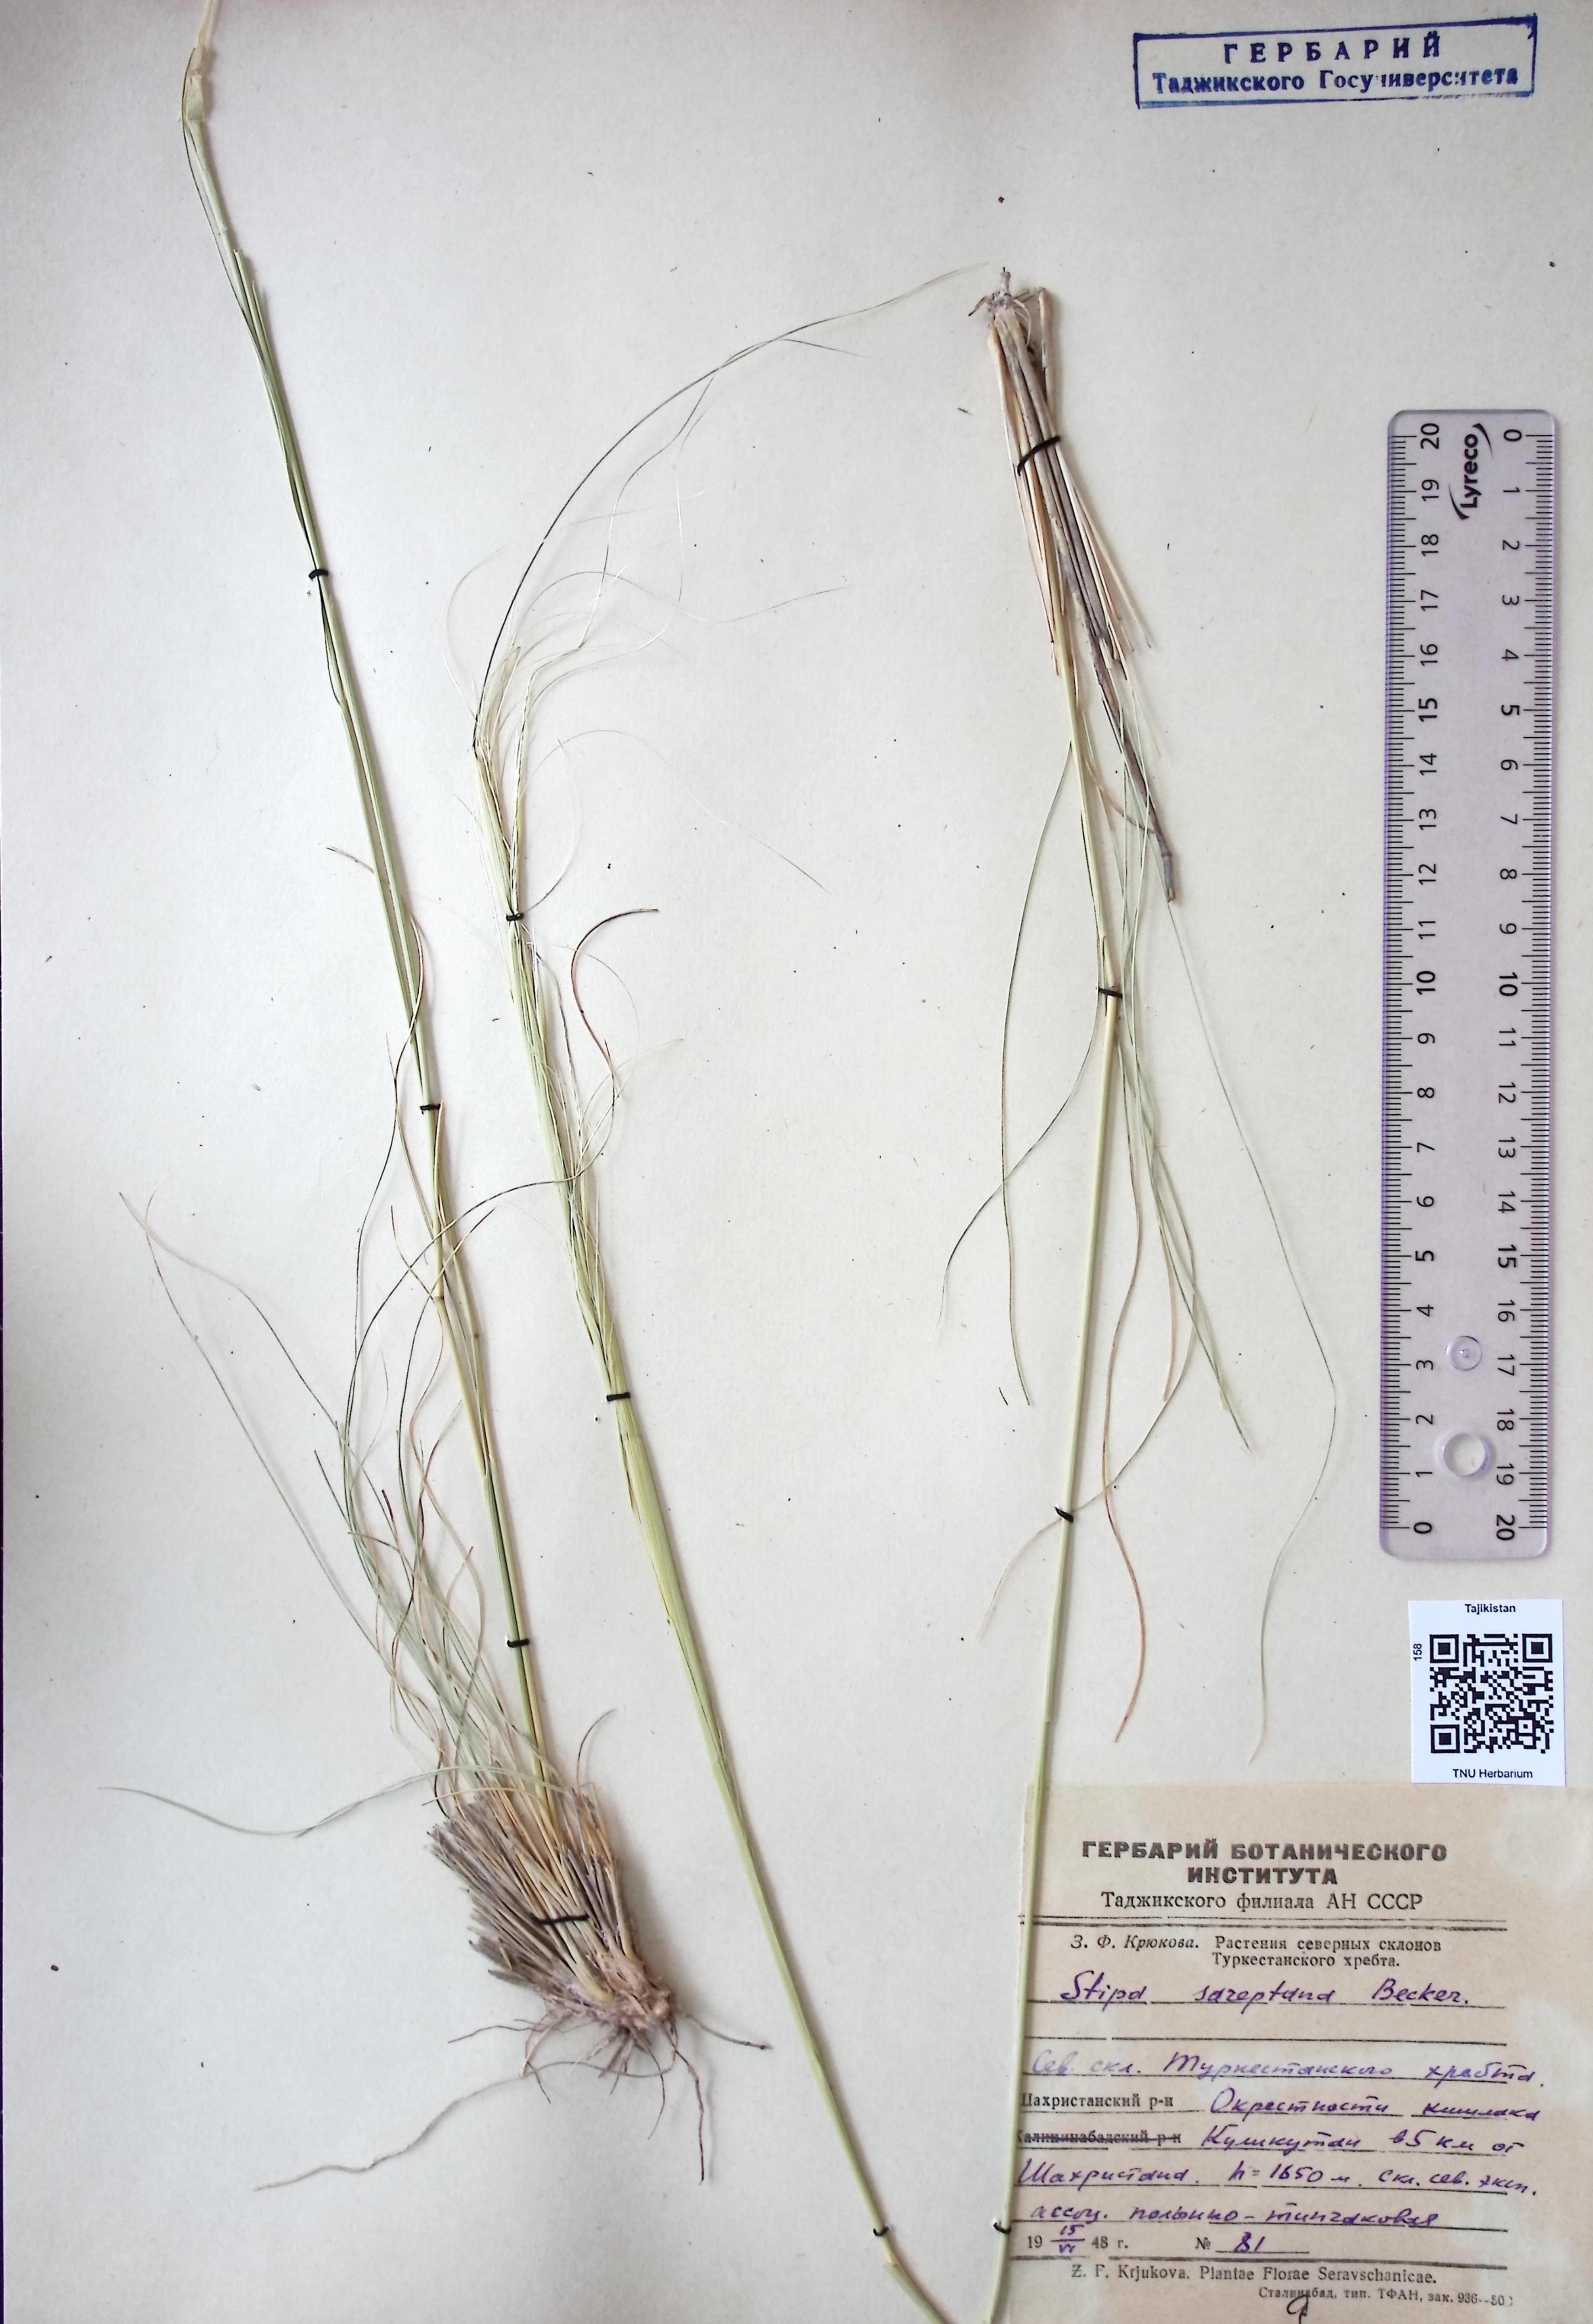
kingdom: Plantae
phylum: Tracheophyta
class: Liliopsida
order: Poales
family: Poaceae
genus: Stipa
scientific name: Stipa sareptana
